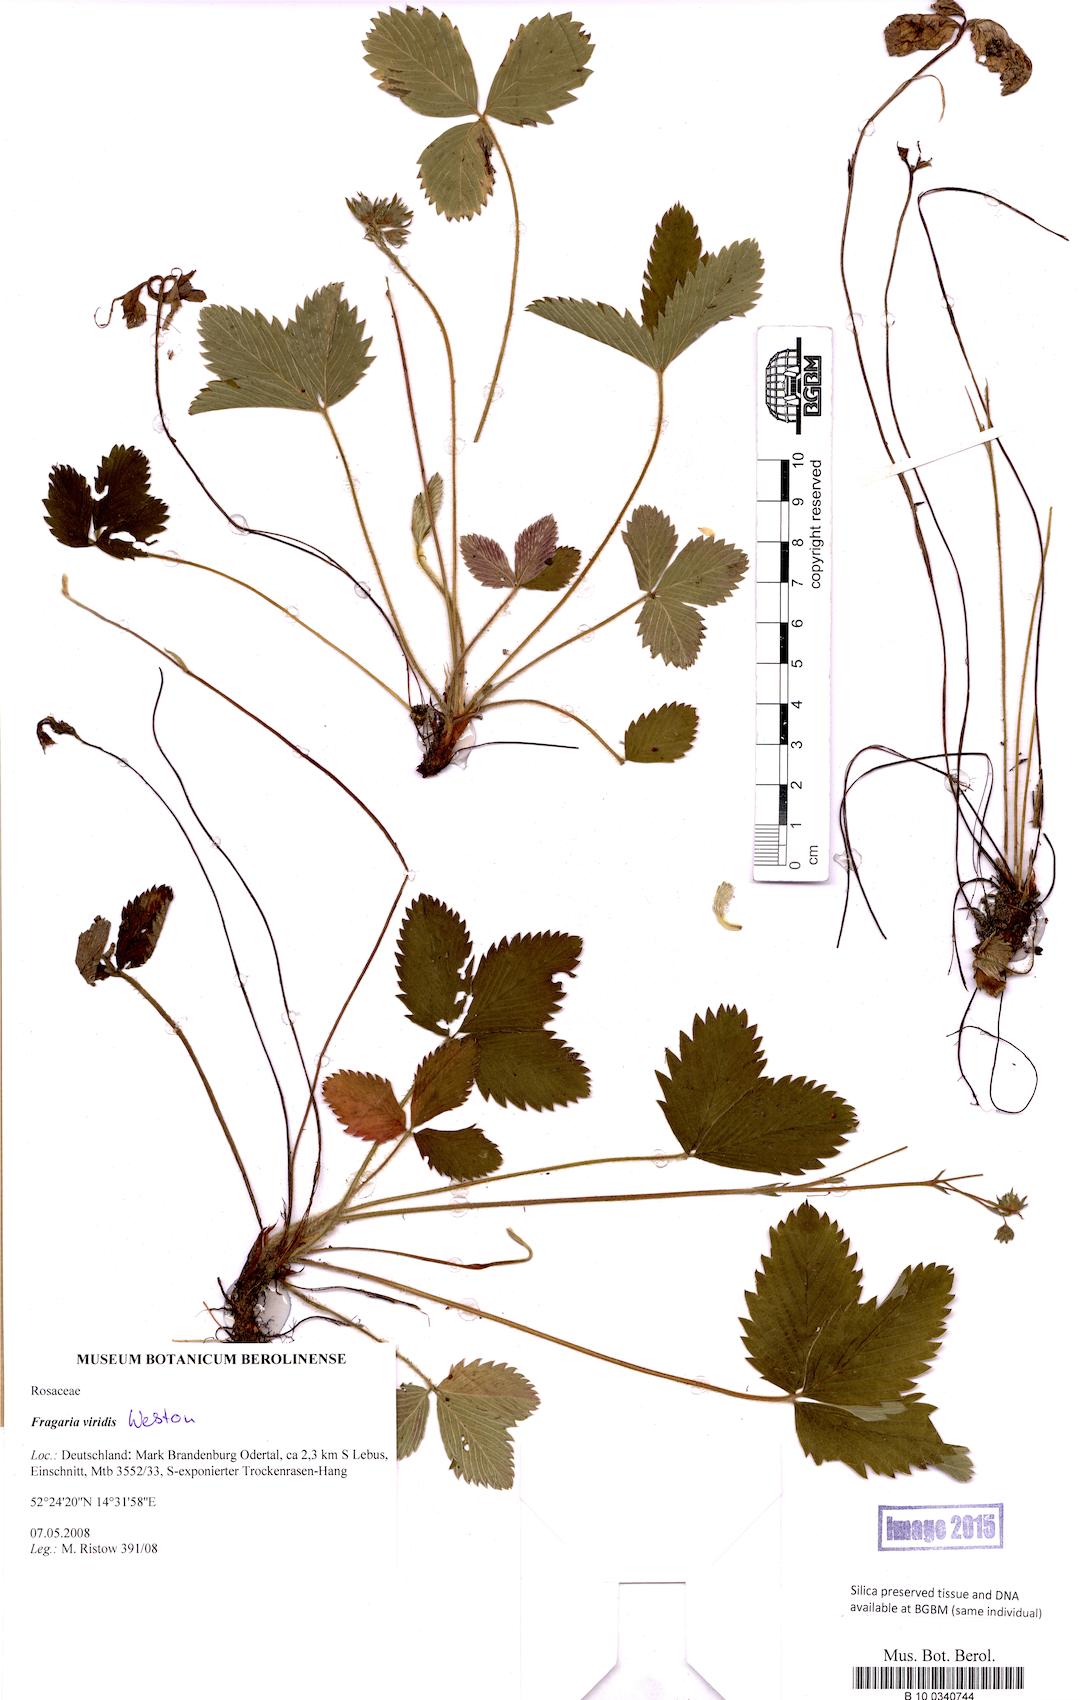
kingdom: Plantae
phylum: Tracheophyta
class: Magnoliopsida
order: Rosales
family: Rosaceae
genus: Fragaria
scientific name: Fragaria viridis
